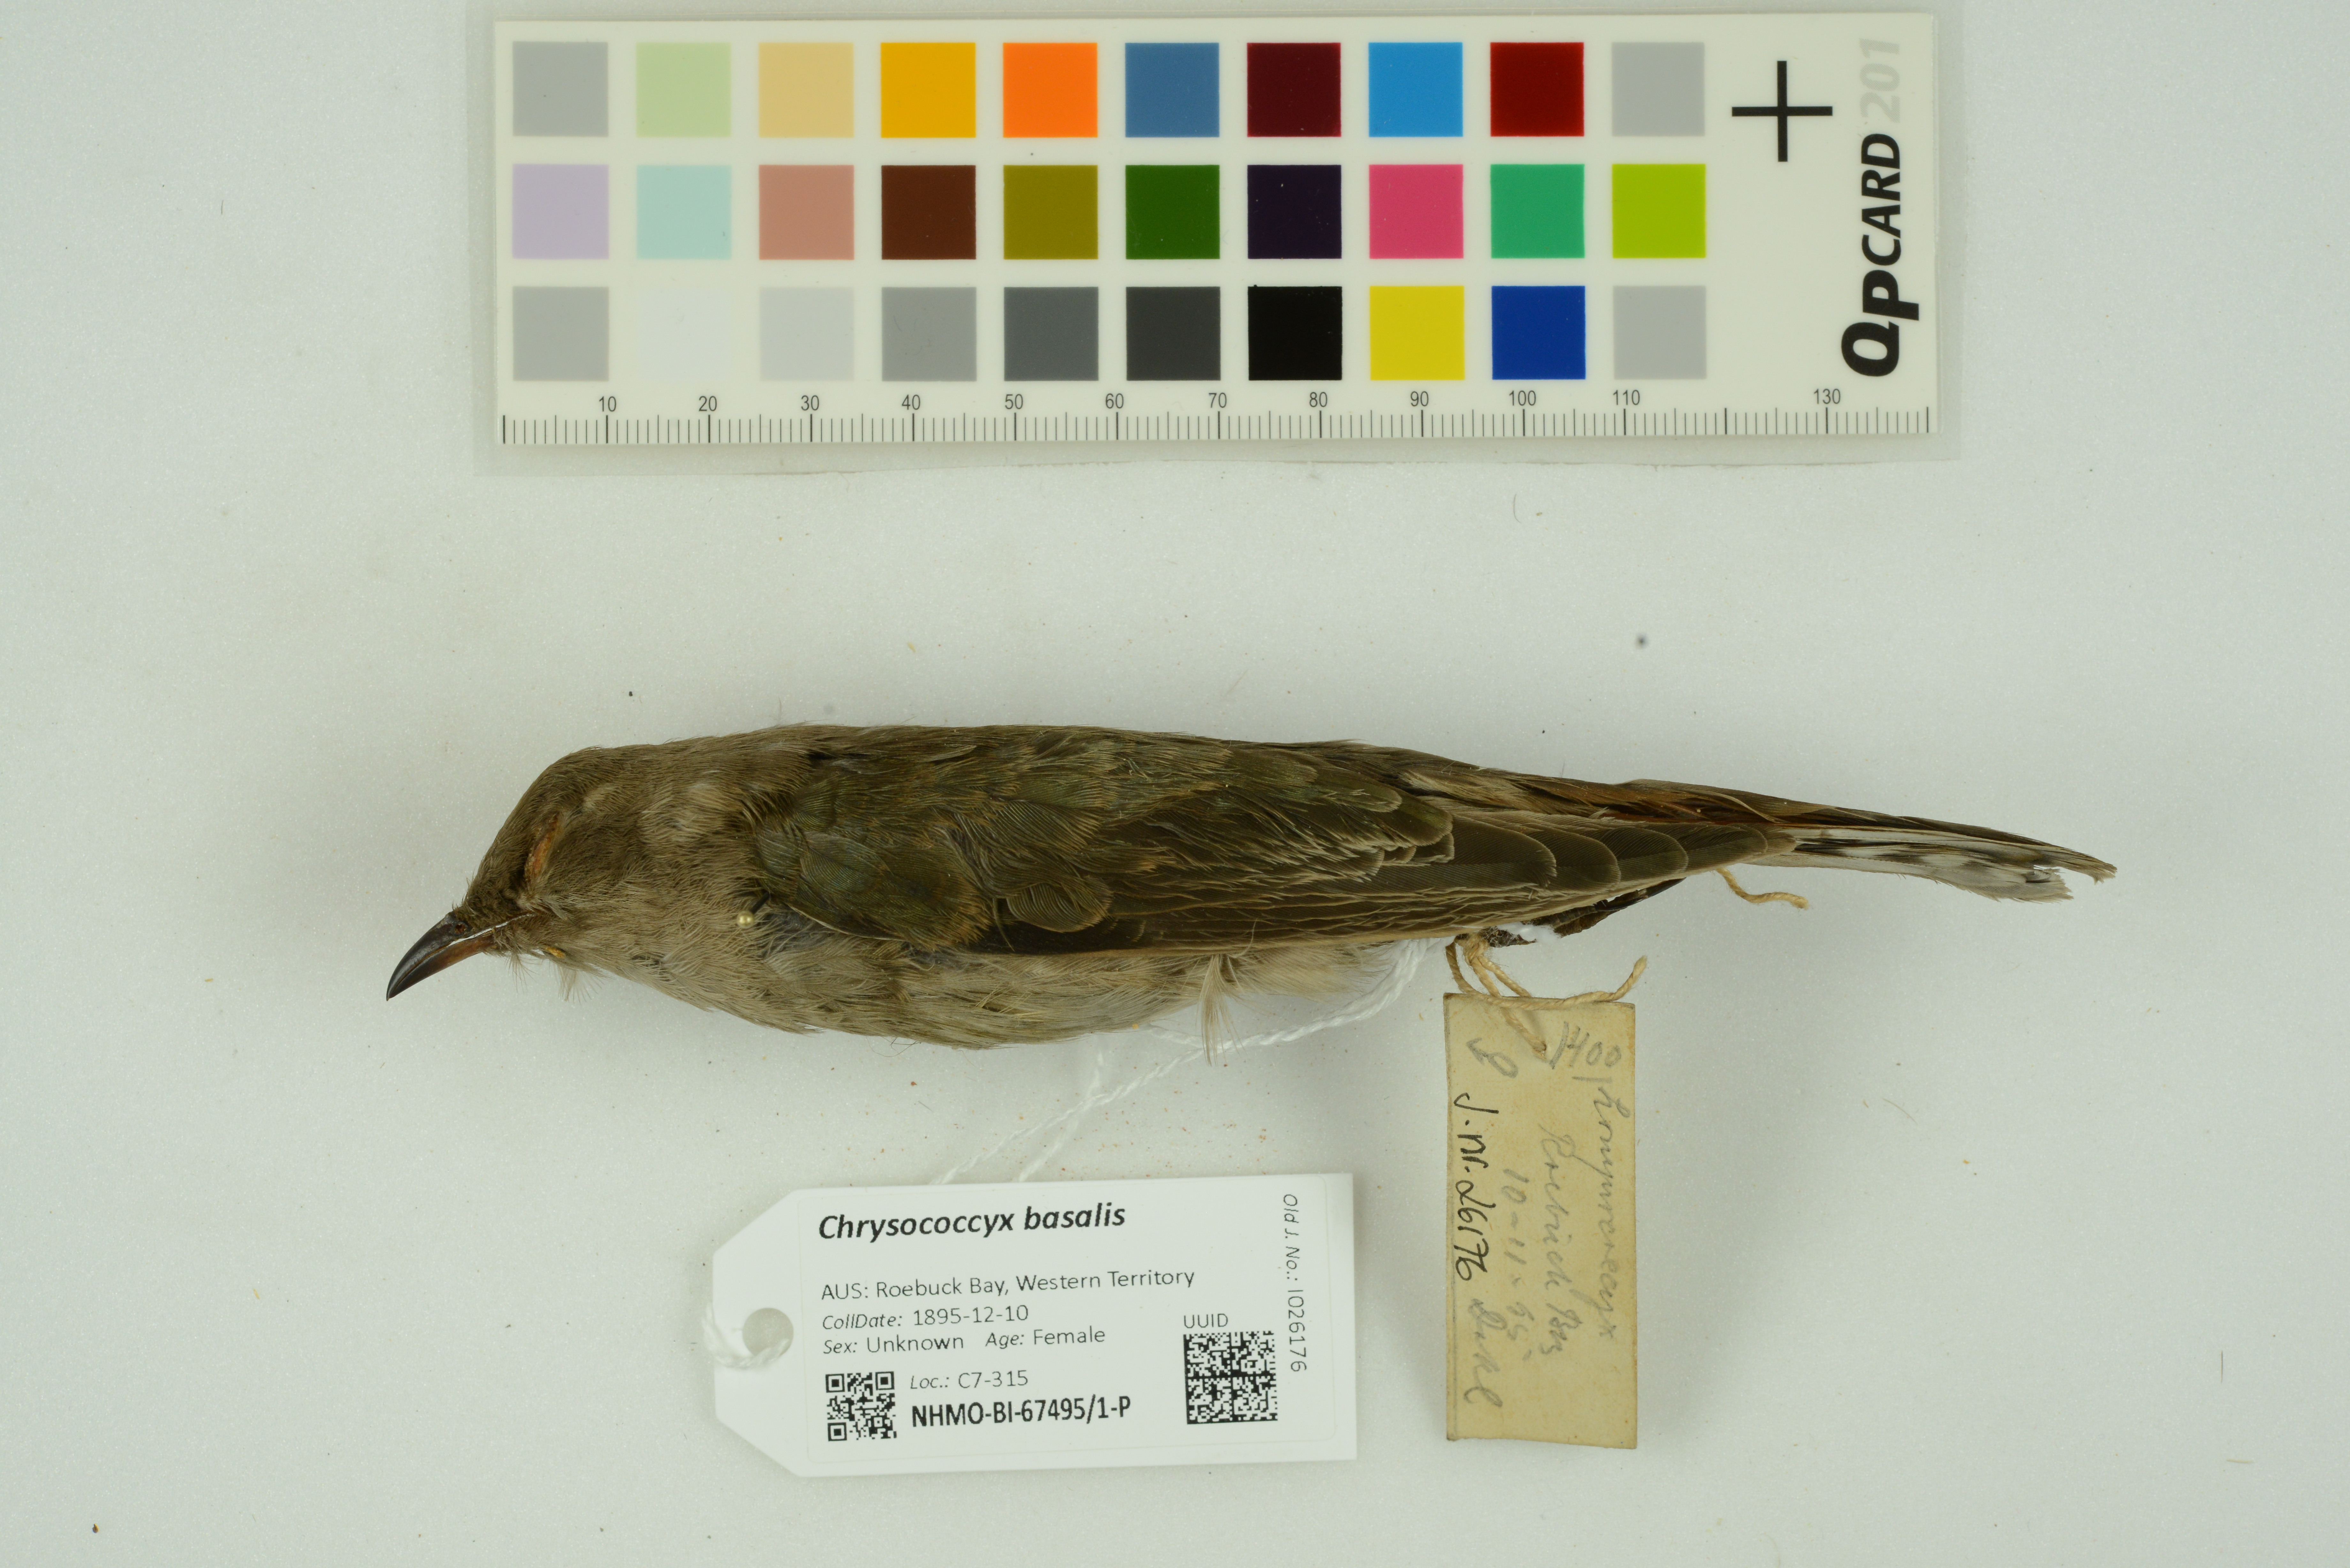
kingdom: Animalia
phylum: Chordata
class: Aves
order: Cuculiformes
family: Cuculidae
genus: Chrysococcyx
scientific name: Chrysococcyx basalis
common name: Horsfield's bronze cuckoo
